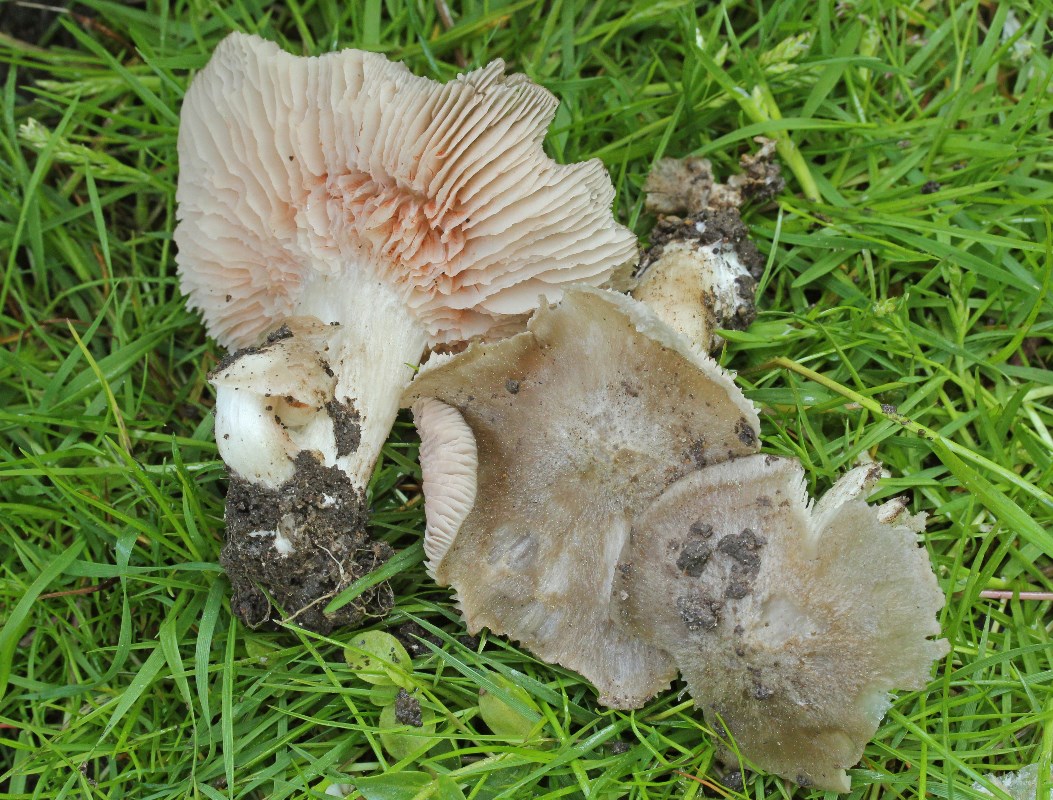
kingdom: Fungi
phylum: Basidiomycota
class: Agaricomycetes
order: Agaricales
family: Entolomataceae
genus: Entoloma
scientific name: Entoloma clypeatum
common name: flammet rødblad
